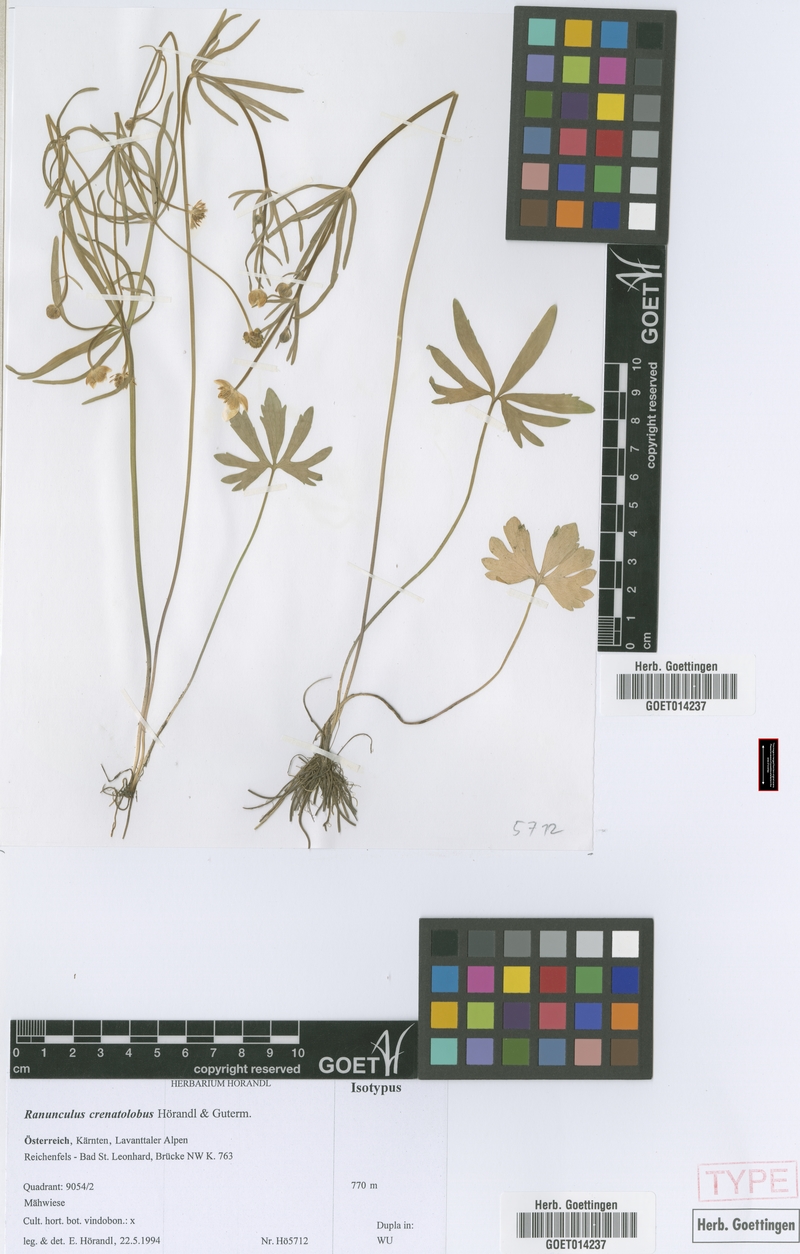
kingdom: Plantae
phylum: Tracheophyta
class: Magnoliopsida
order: Ranunculales
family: Ranunculaceae
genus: Ranunculus
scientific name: Ranunculus crenatolobus
